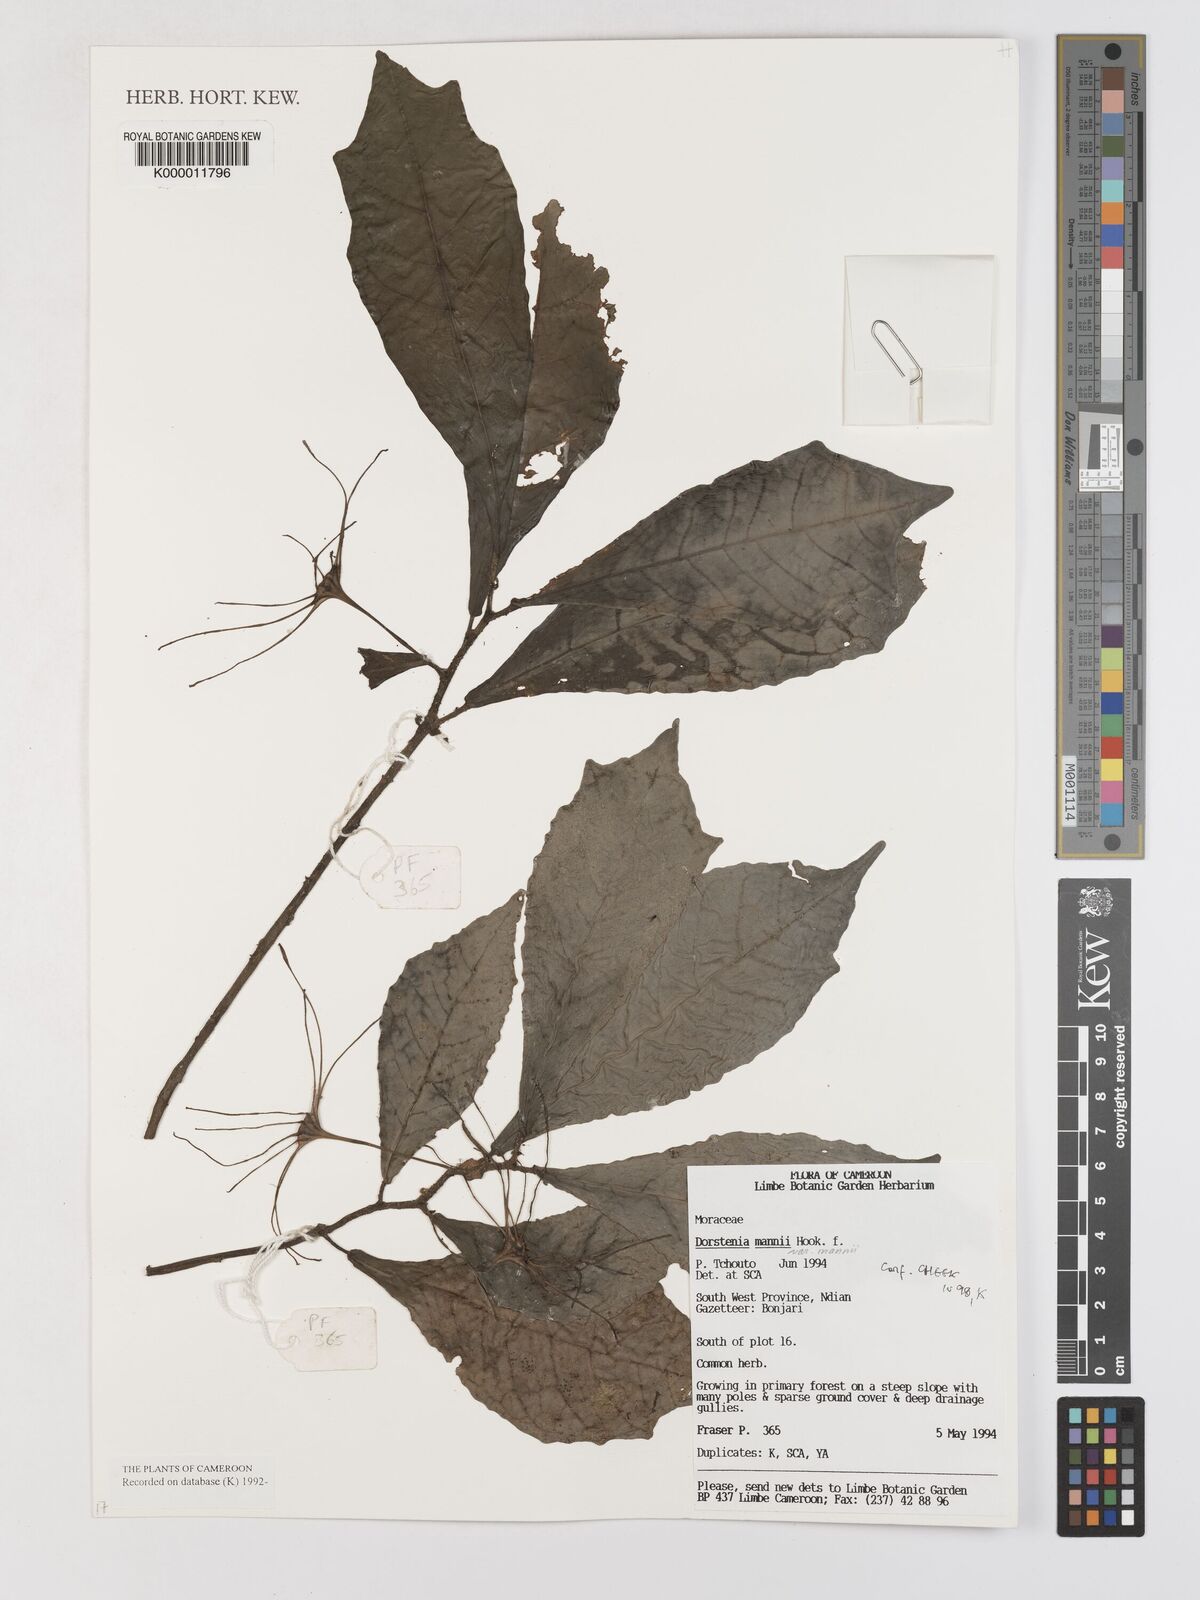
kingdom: Plantae
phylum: Tracheophyta
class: Magnoliopsida
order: Rosales
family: Moraceae
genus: Dorstenia
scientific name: Dorstenia mannii
